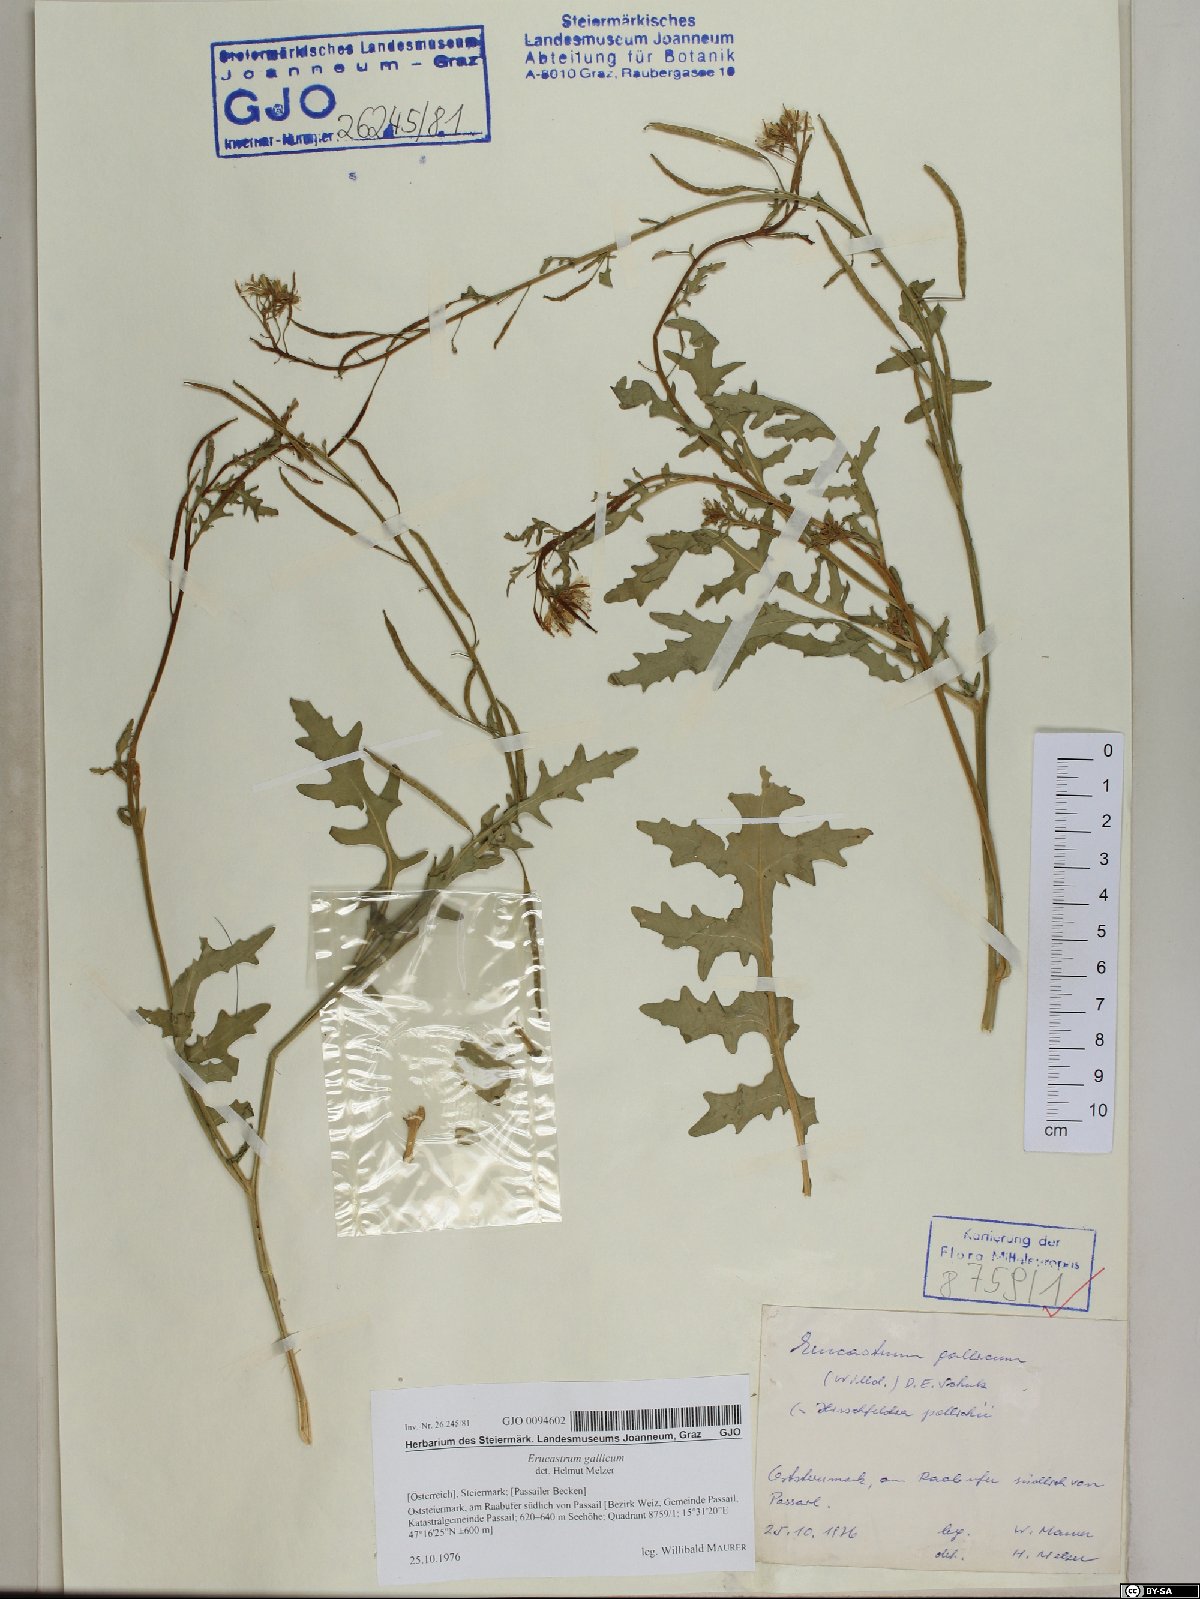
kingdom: Plantae
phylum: Tracheophyta
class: Magnoliopsida
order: Brassicales
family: Brassicaceae
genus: Erucastrum
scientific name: Erucastrum gallicum
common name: Hairy rocket
